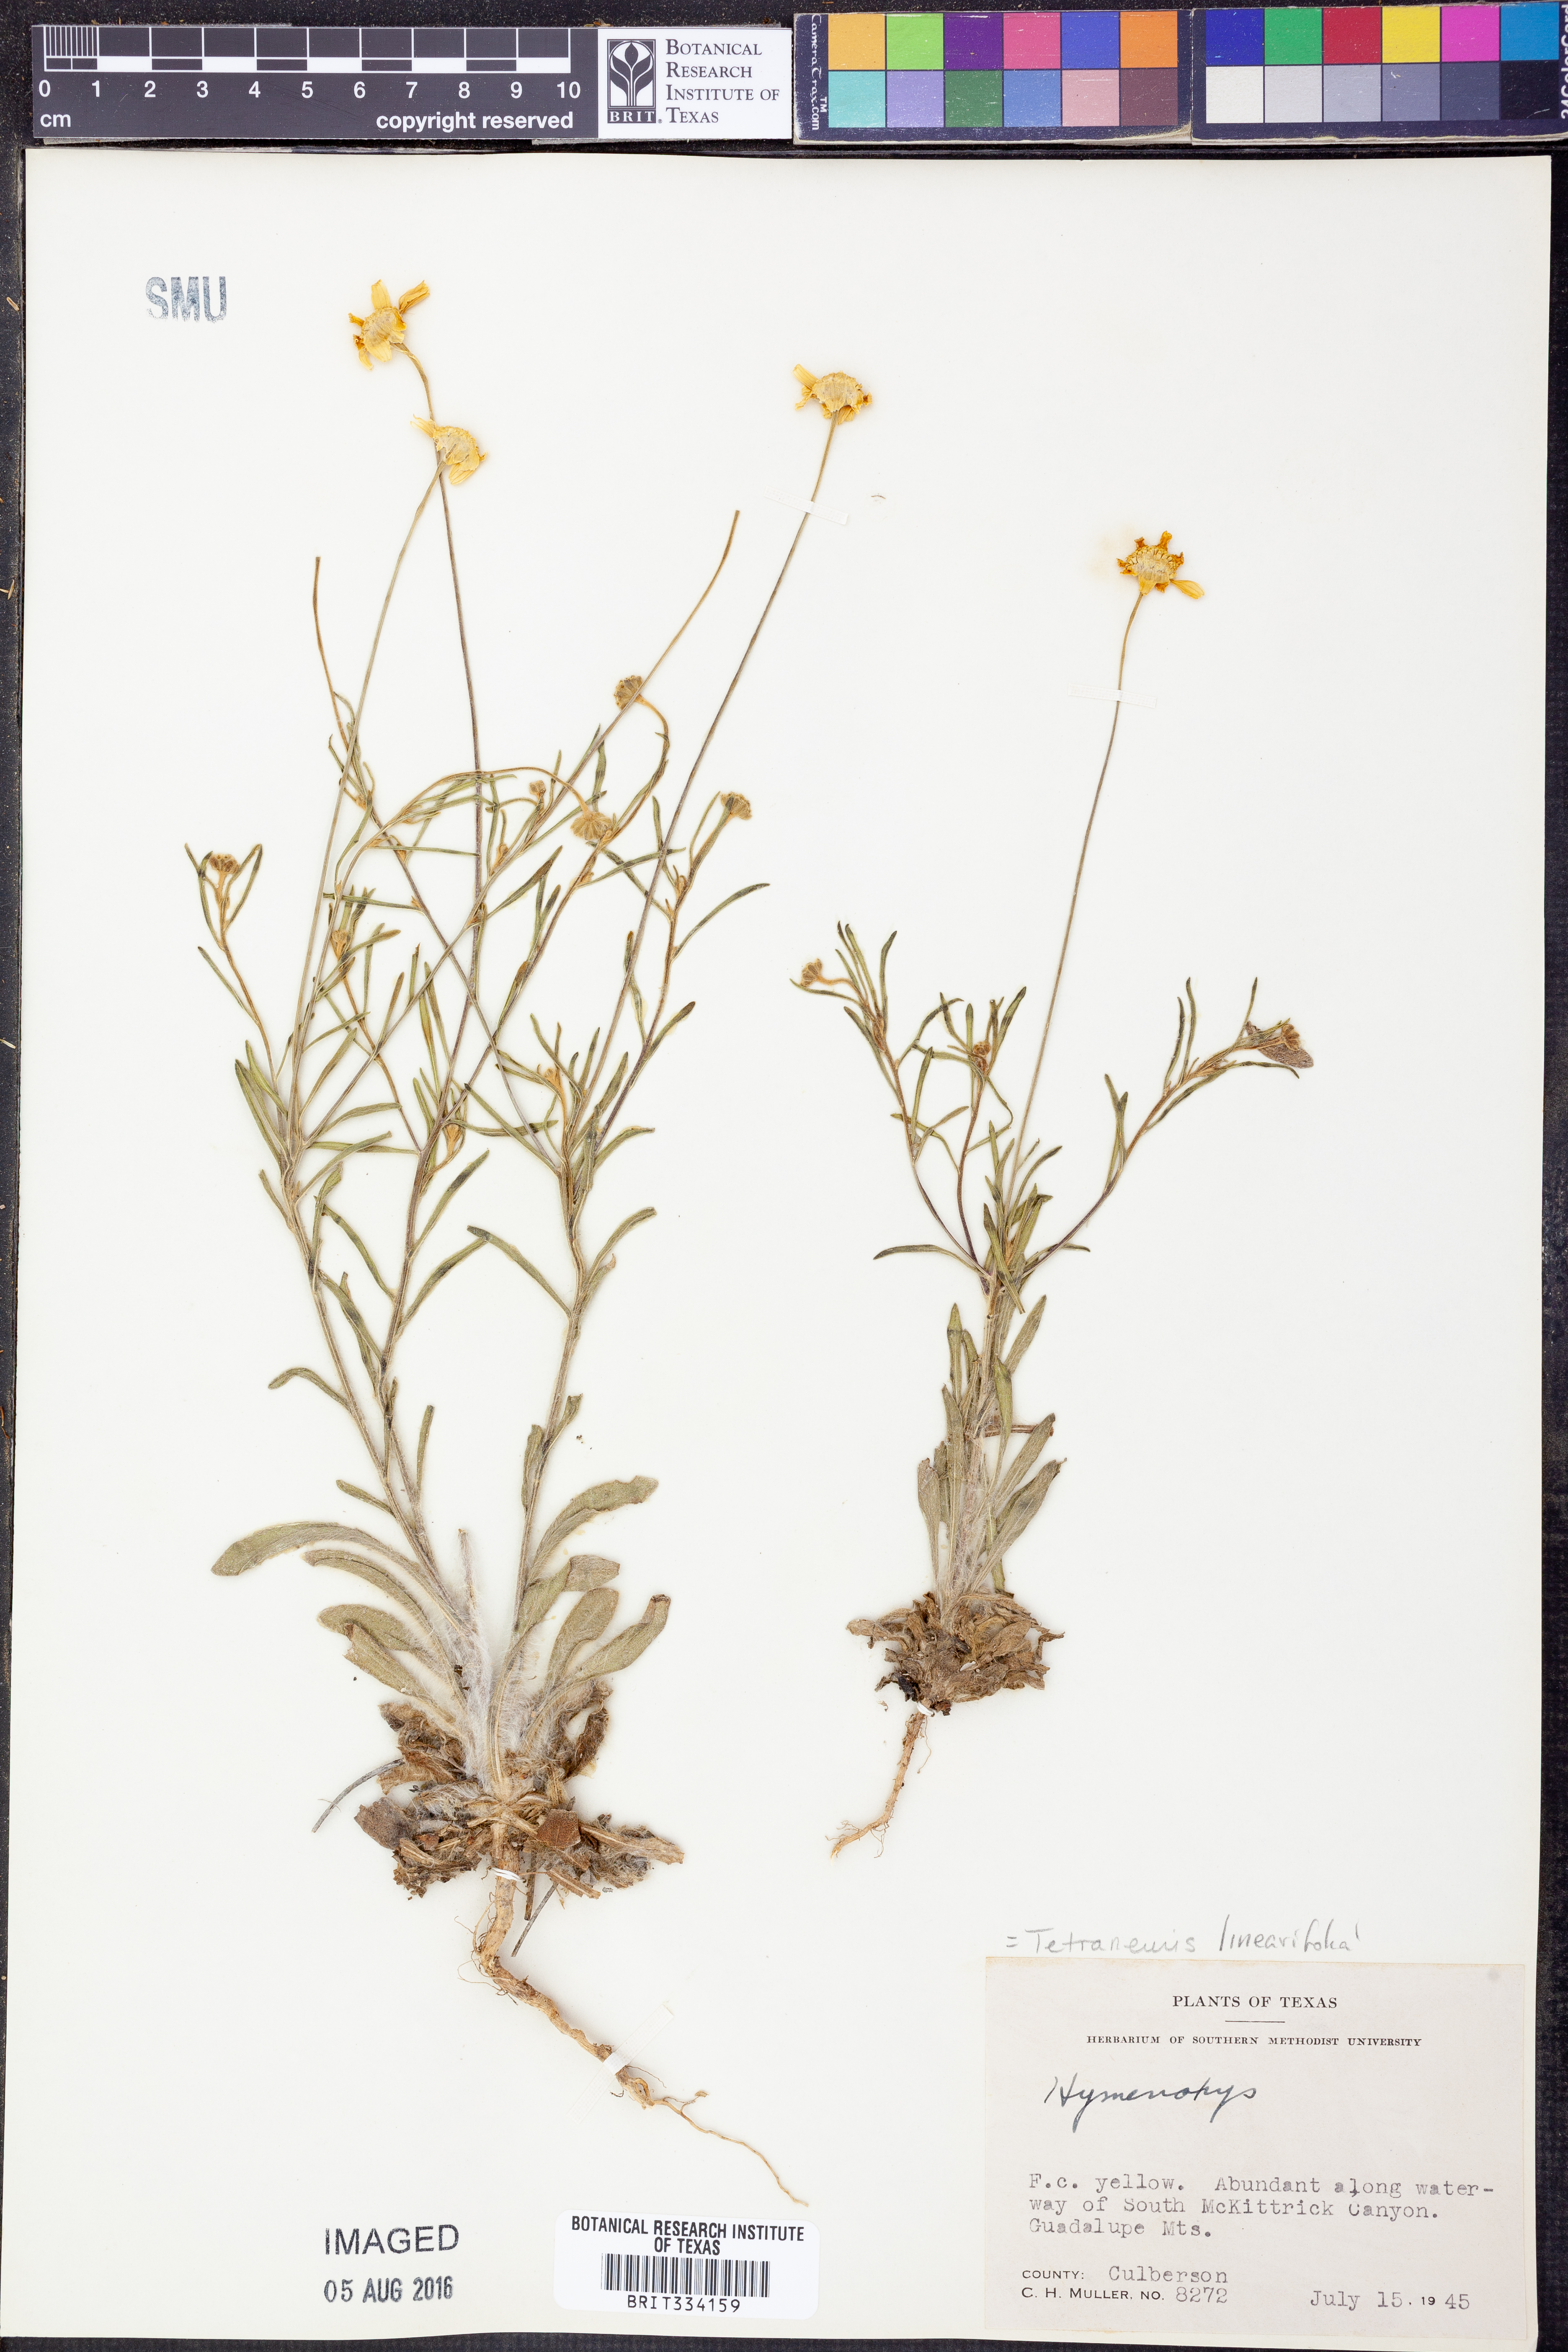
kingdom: Plantae
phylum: Tracheophyta
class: Magnoliopsida
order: Asterales
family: Asteraceae
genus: Tetraneuris
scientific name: Tetraneuris linearifolia
